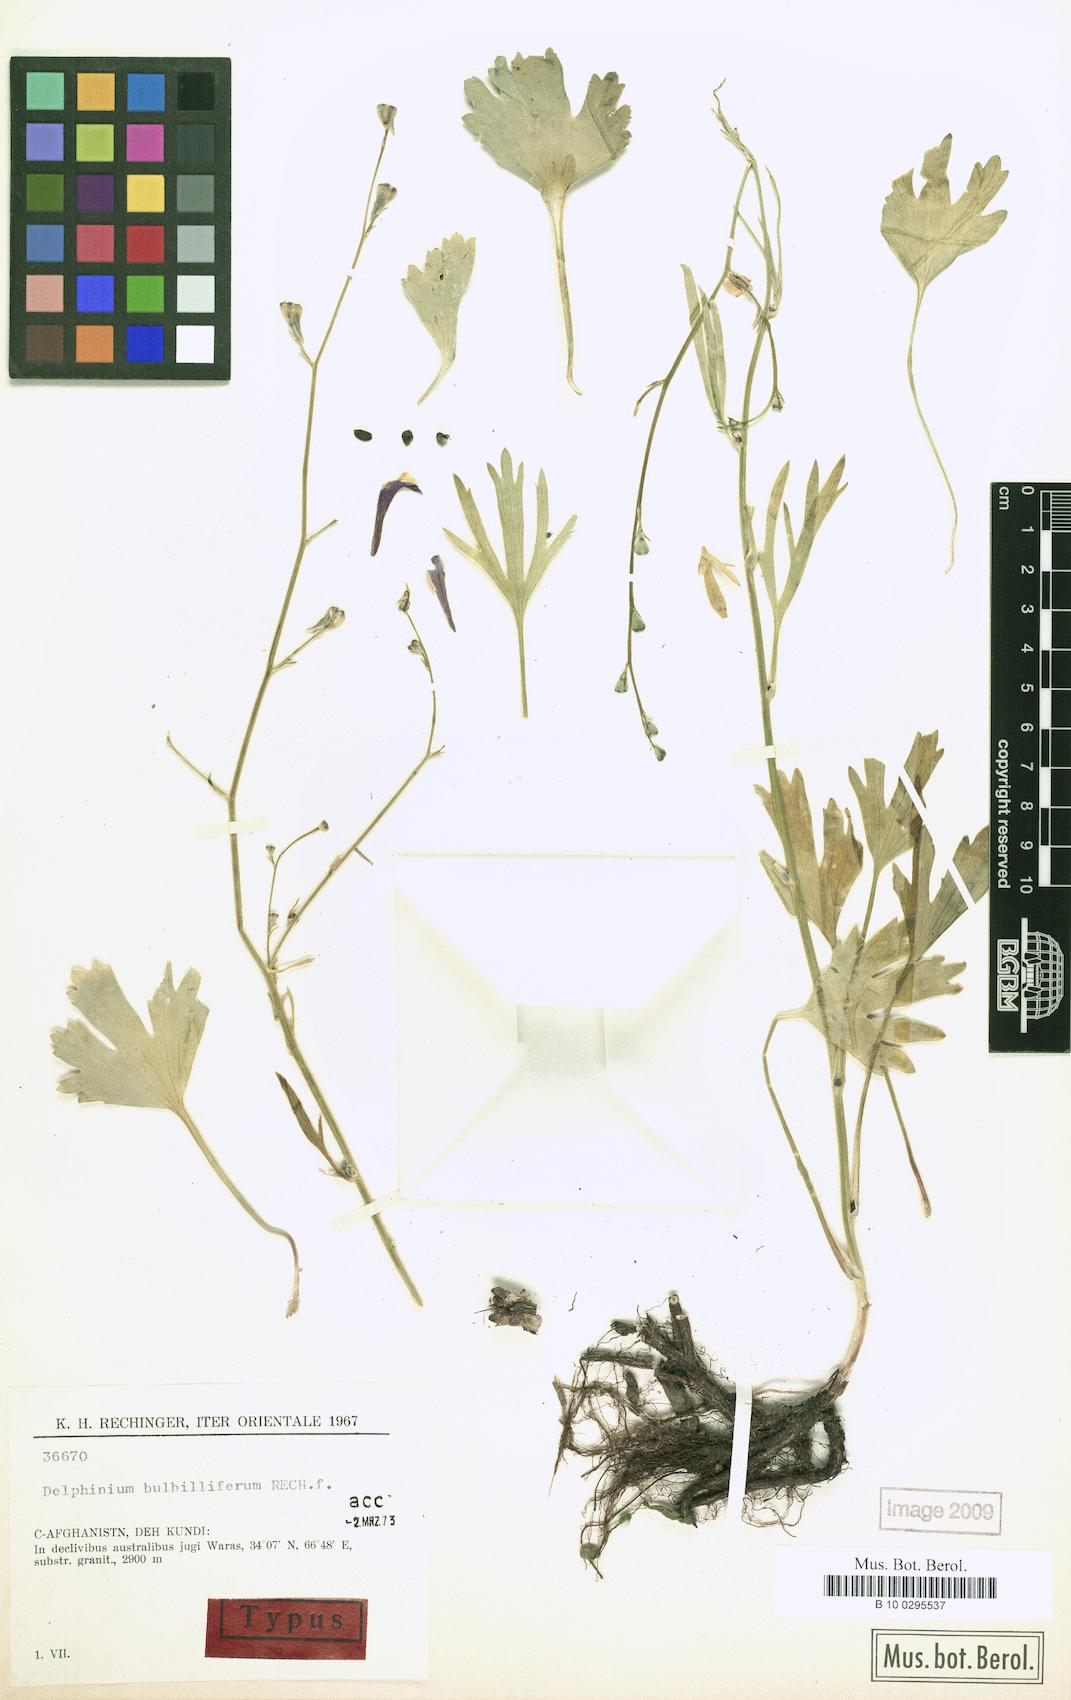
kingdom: Plantae
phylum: Tracheophyta
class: Magnoliopsida
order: Ranunculales
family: Ranunculaceae
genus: Delphinium
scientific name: Delphinium bulbilliferum
